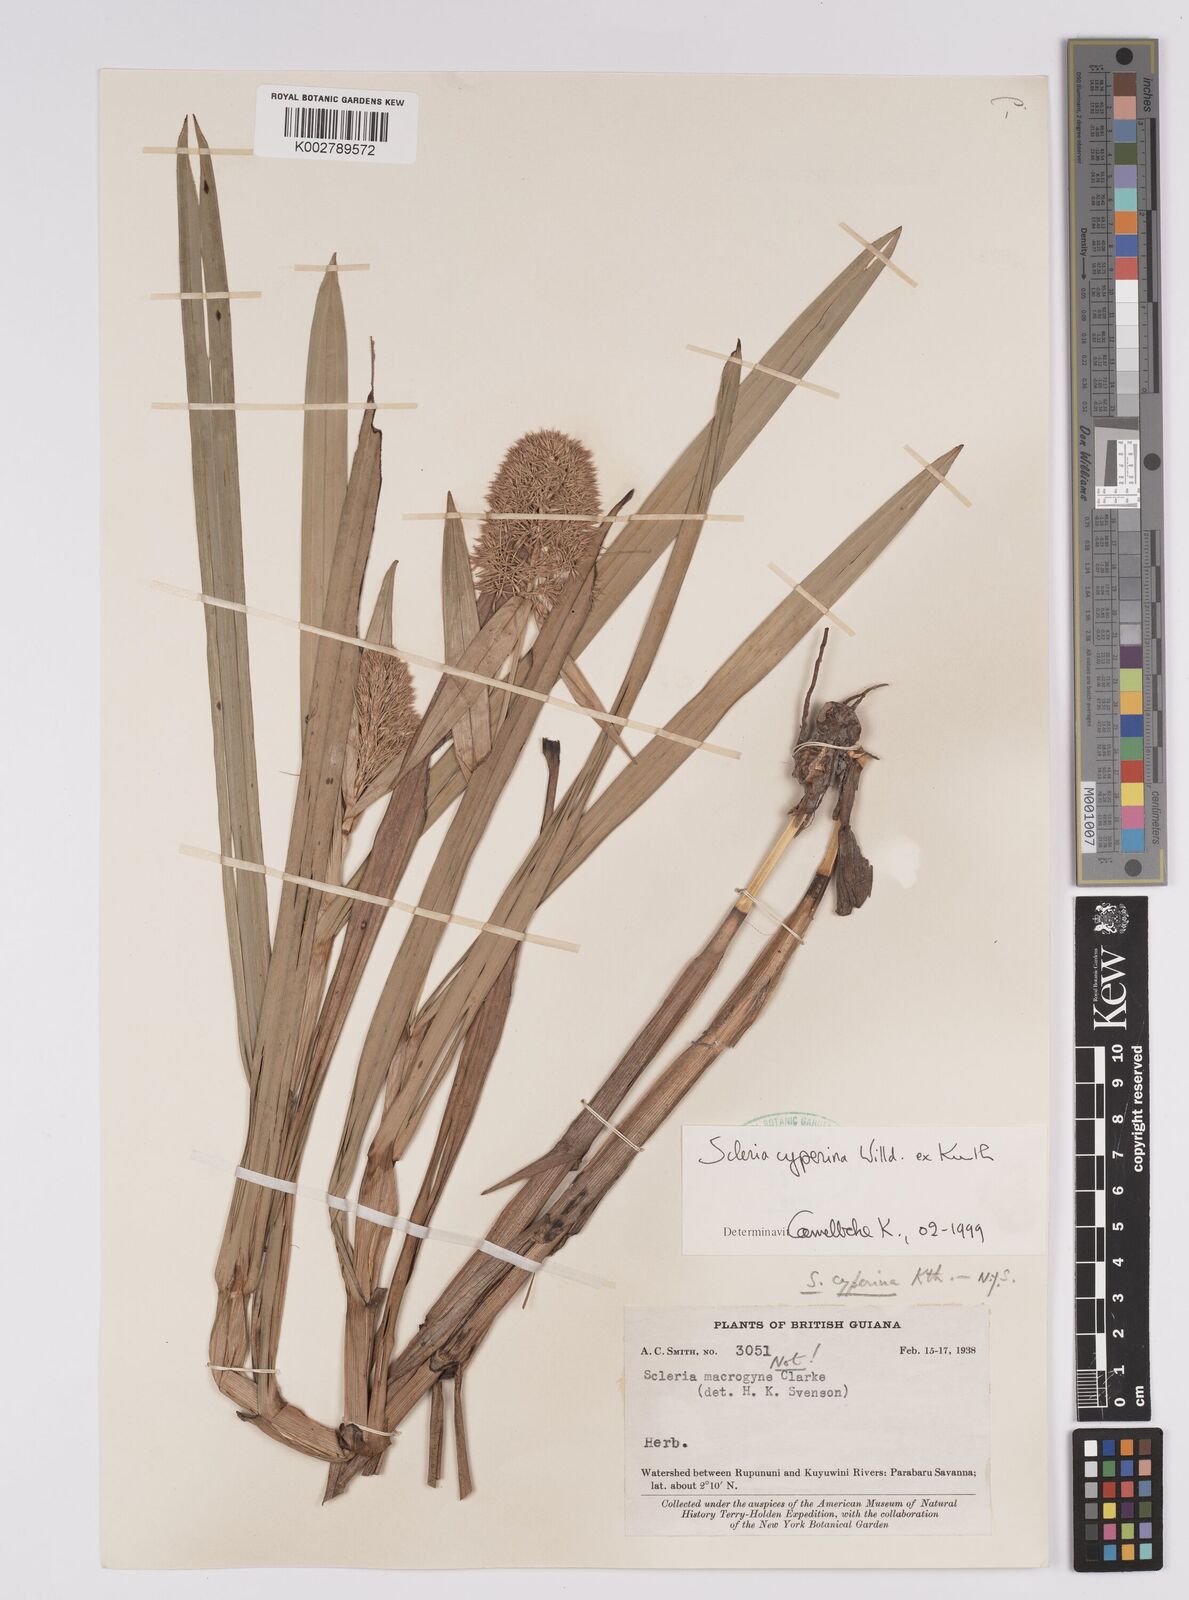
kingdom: Plantae
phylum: Tracheophyta
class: Liliopsida
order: Poales
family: Cyperaceae
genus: Scleria
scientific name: Scleria cyperina
